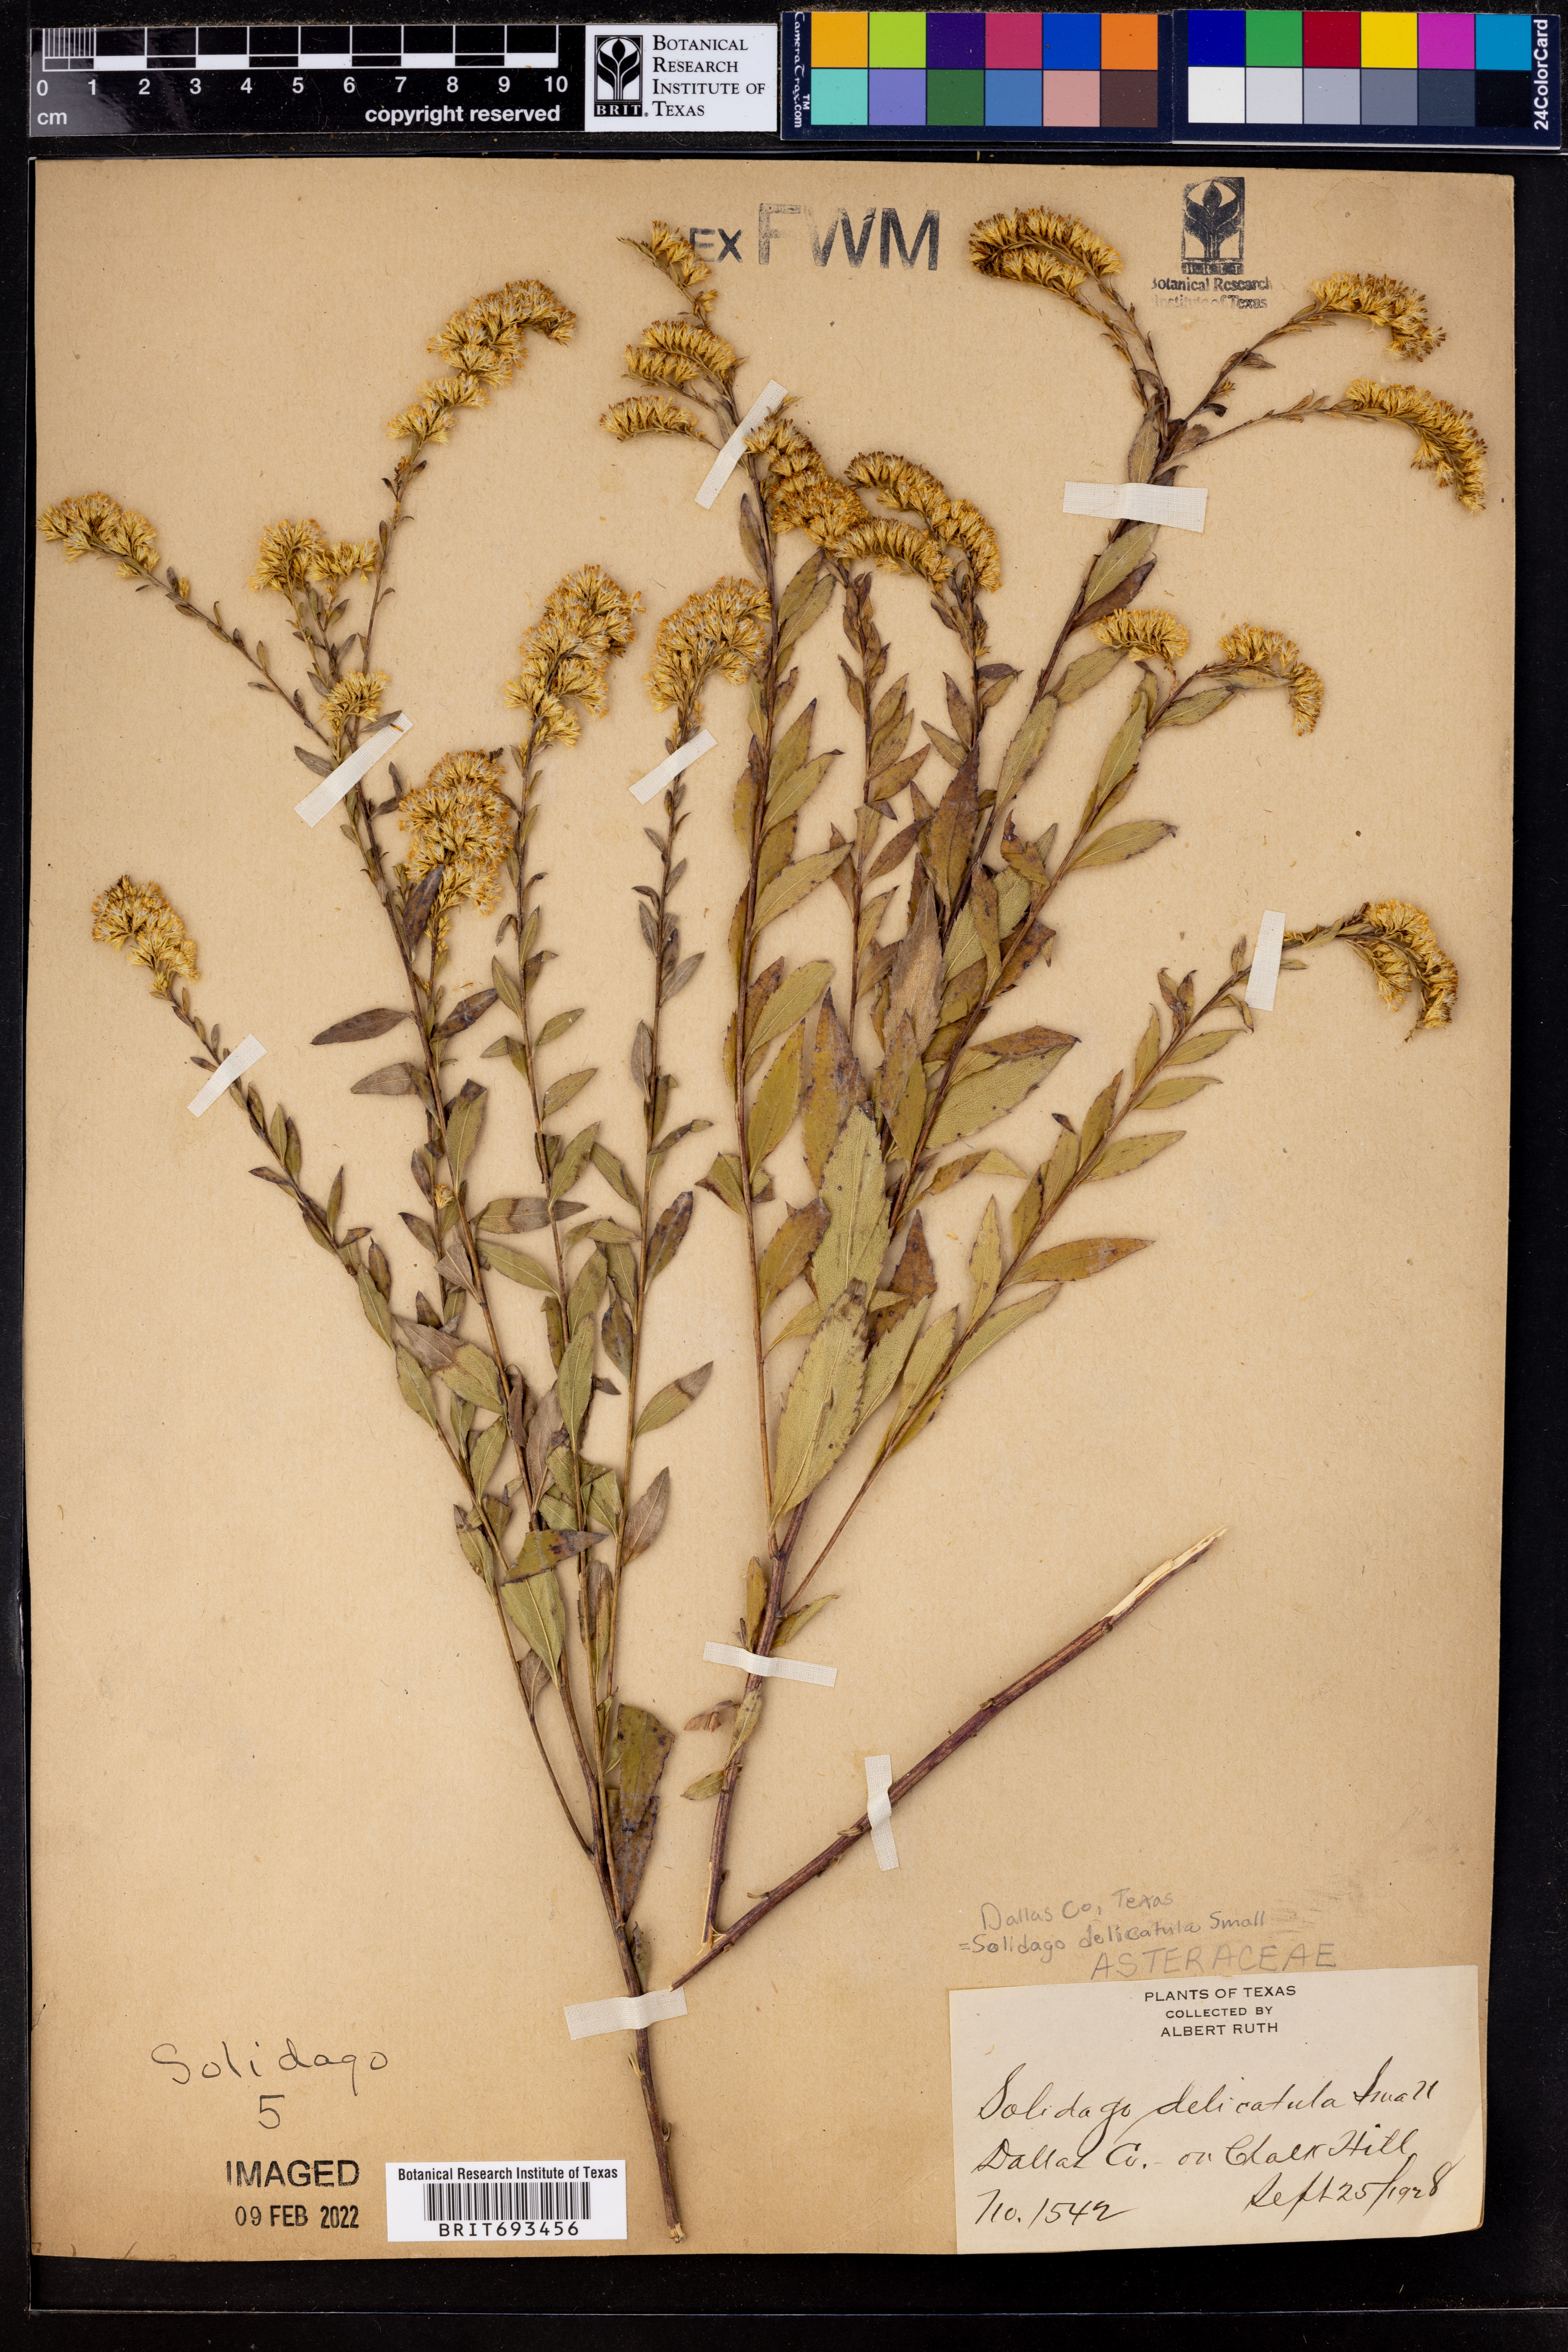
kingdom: Plantae
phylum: Tracheophyta
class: Magnoliopsida
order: Asterales
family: Asteraceae
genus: Solidago
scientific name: Solidago delicatula
